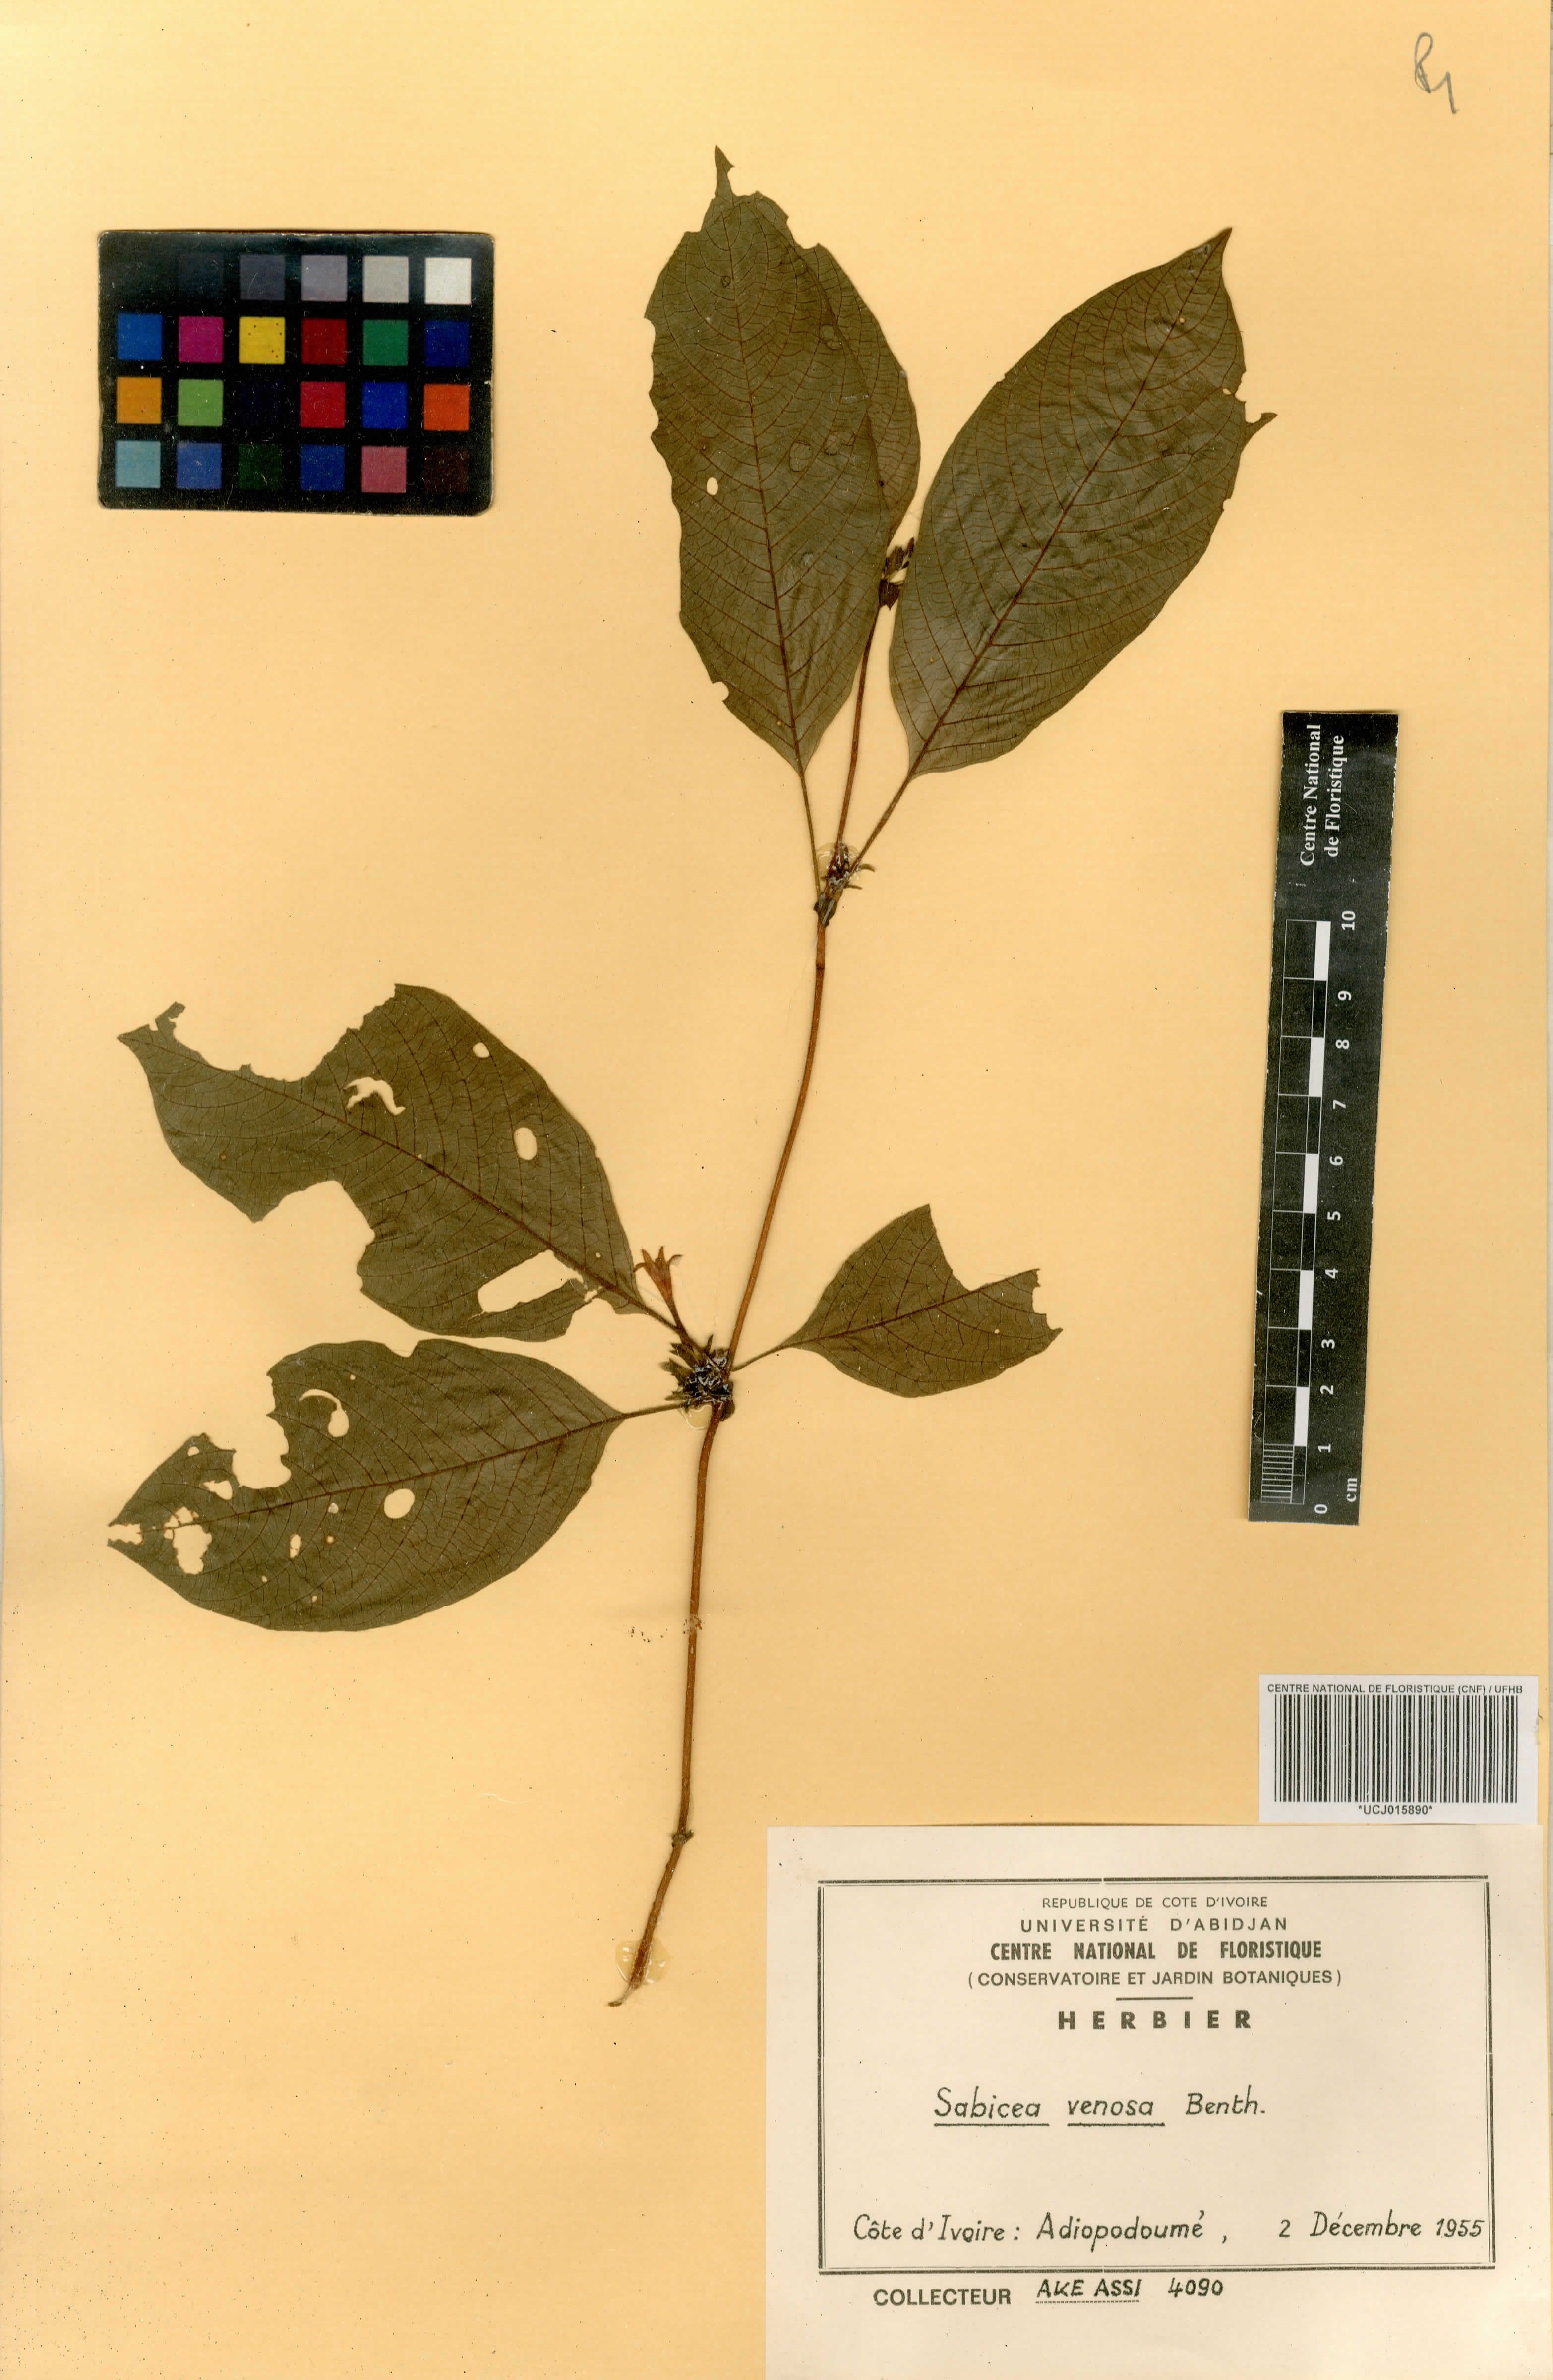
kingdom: Plantae
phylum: Tracheophyta
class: Magnoliopsida
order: Gentianales
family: Rubiaceae
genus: Sabicea
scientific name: Sabicea venosa
